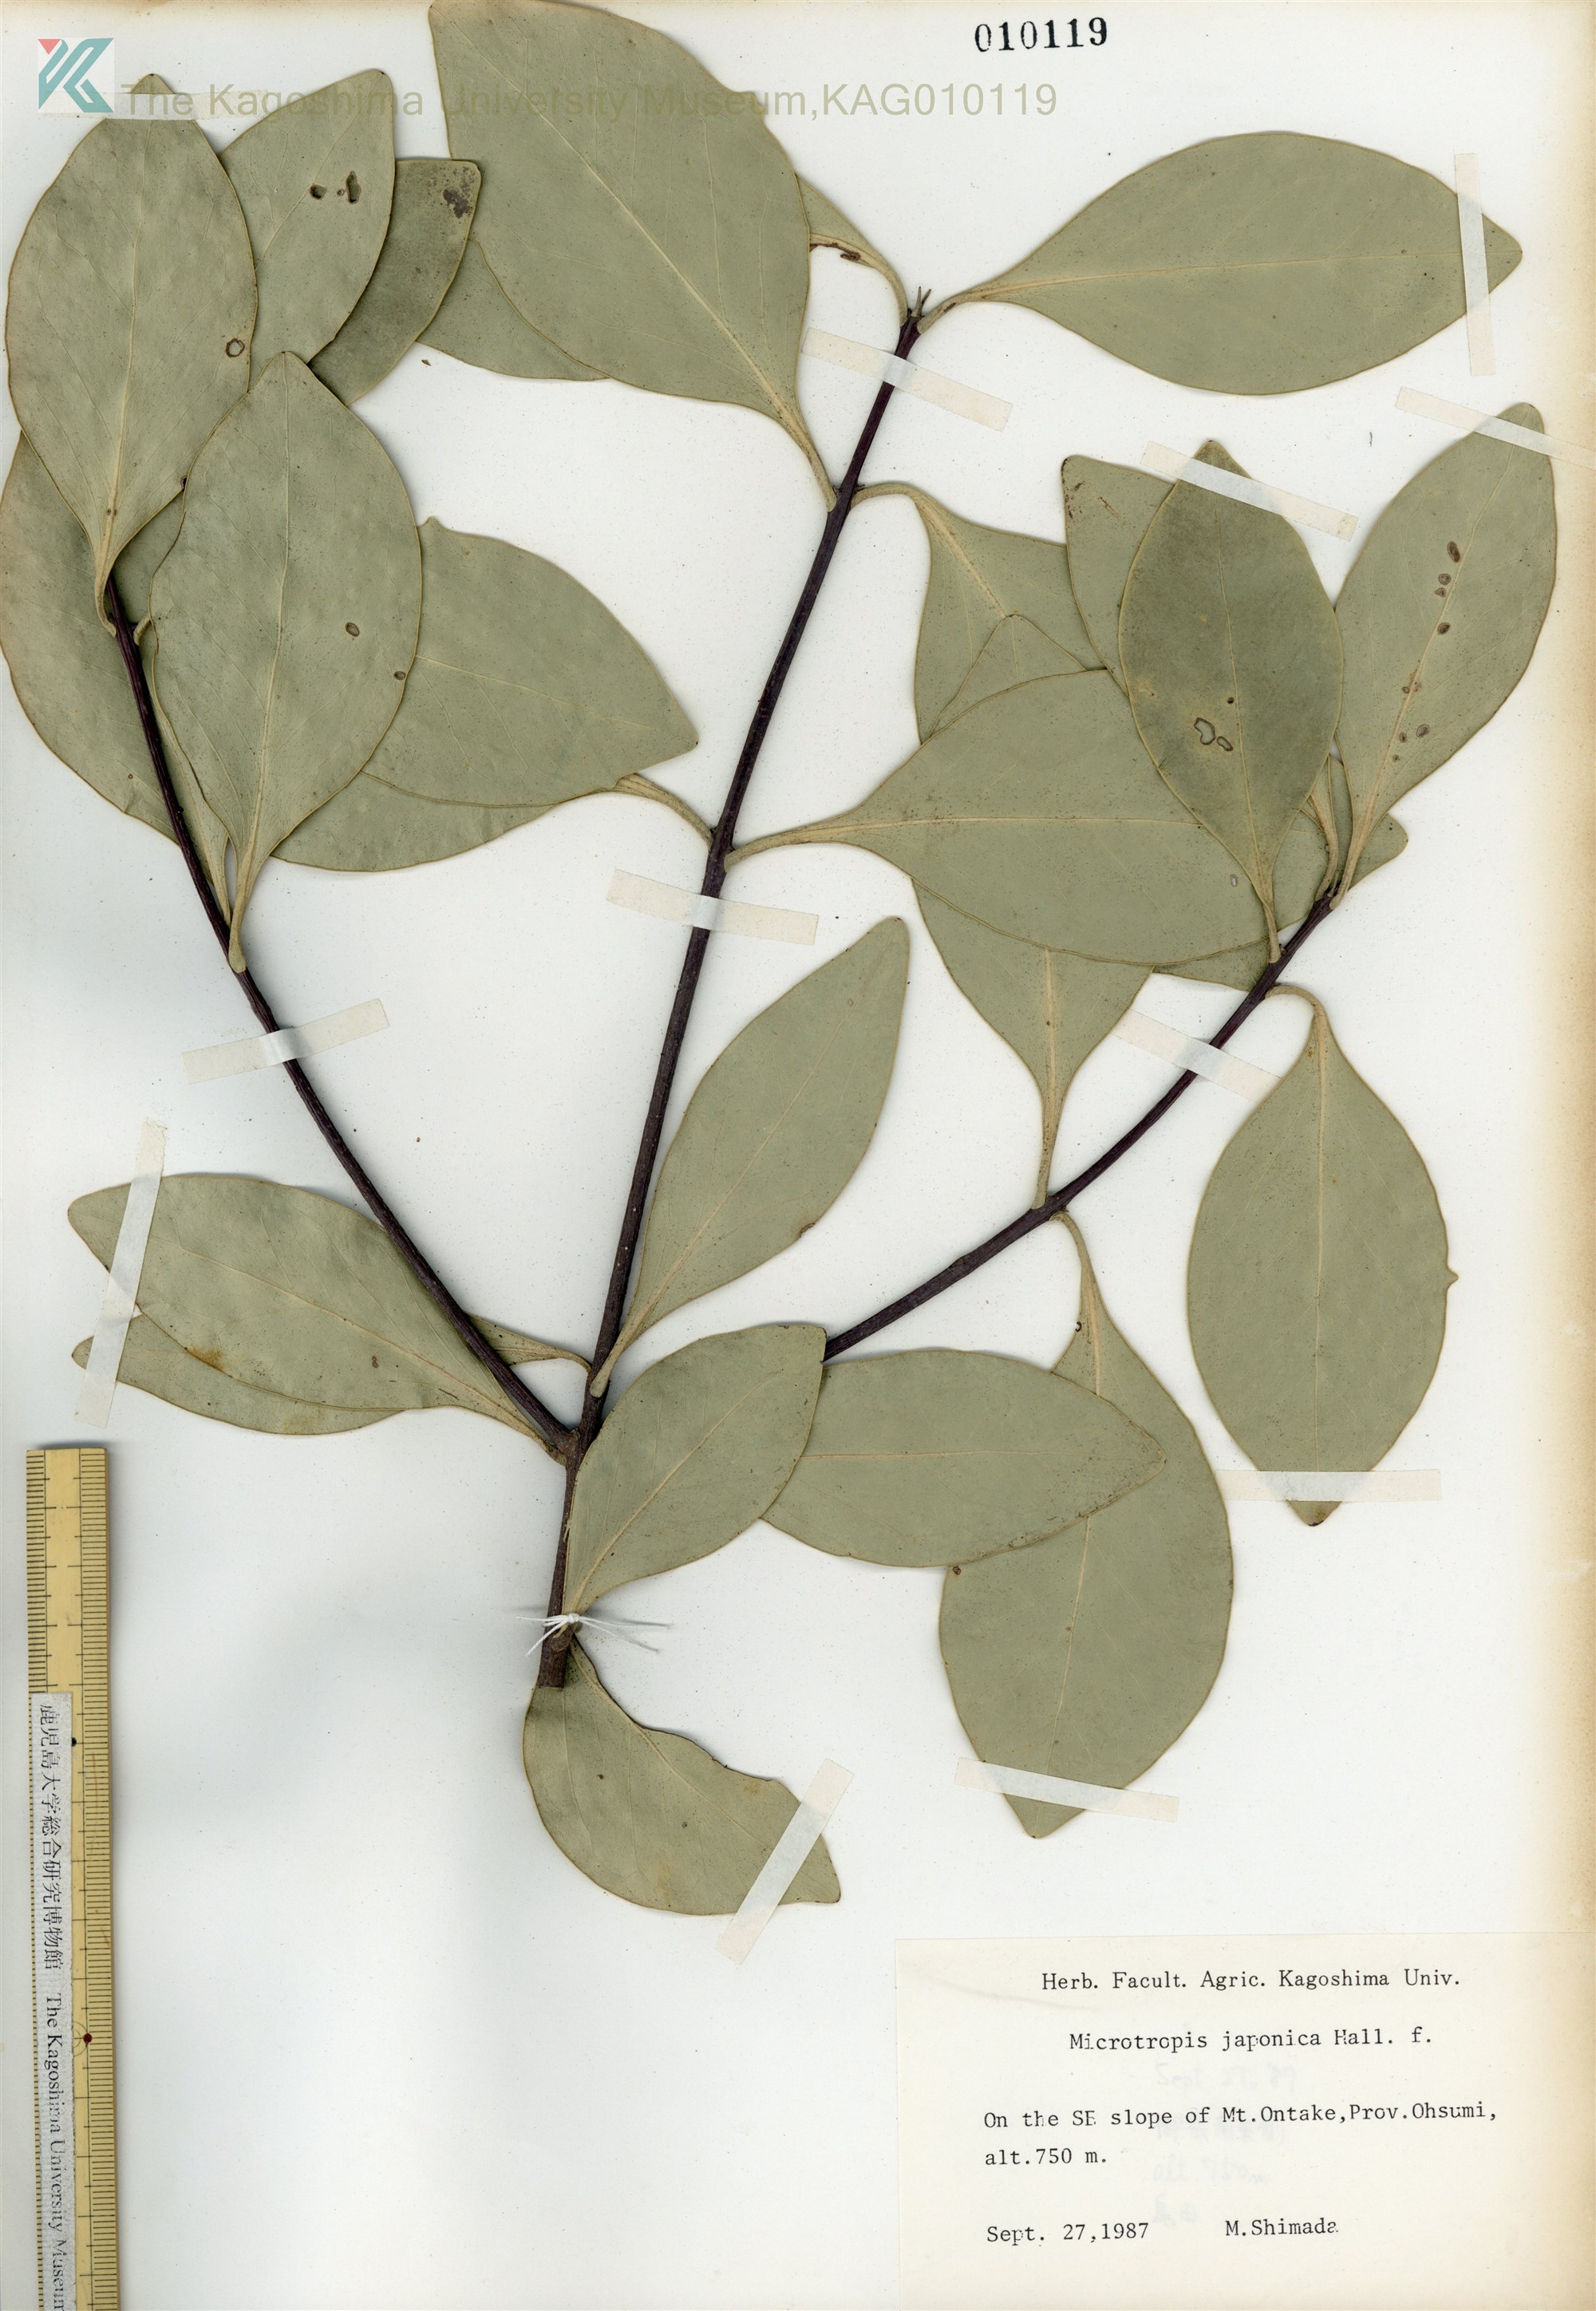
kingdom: Plantae
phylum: Tracheophyta
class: Magnoliopsida
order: Celastrales
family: Celastraceae
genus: Microtropis
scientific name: Microtropis japonica
